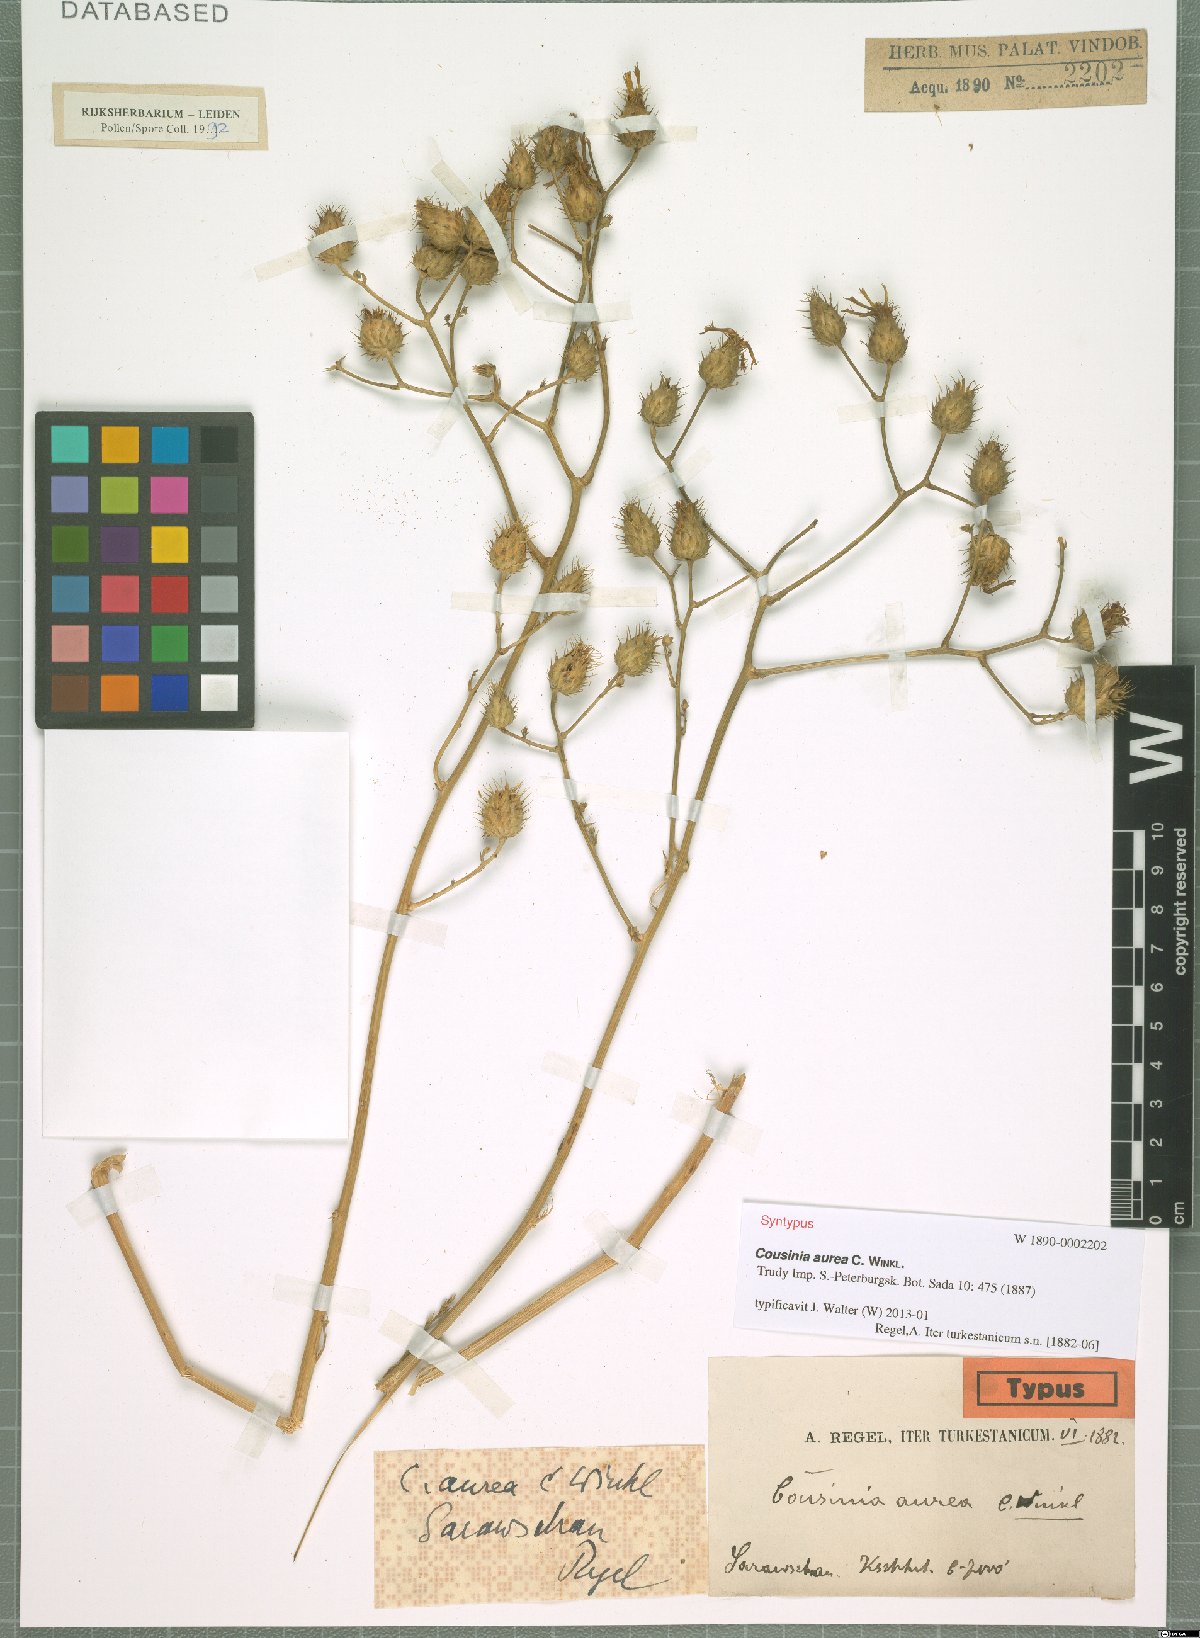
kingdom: Plantae
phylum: Tracheophyta
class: Magnoliopsida
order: Asterales
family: Asteraceae
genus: Arctium
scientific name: Arctium aureum
